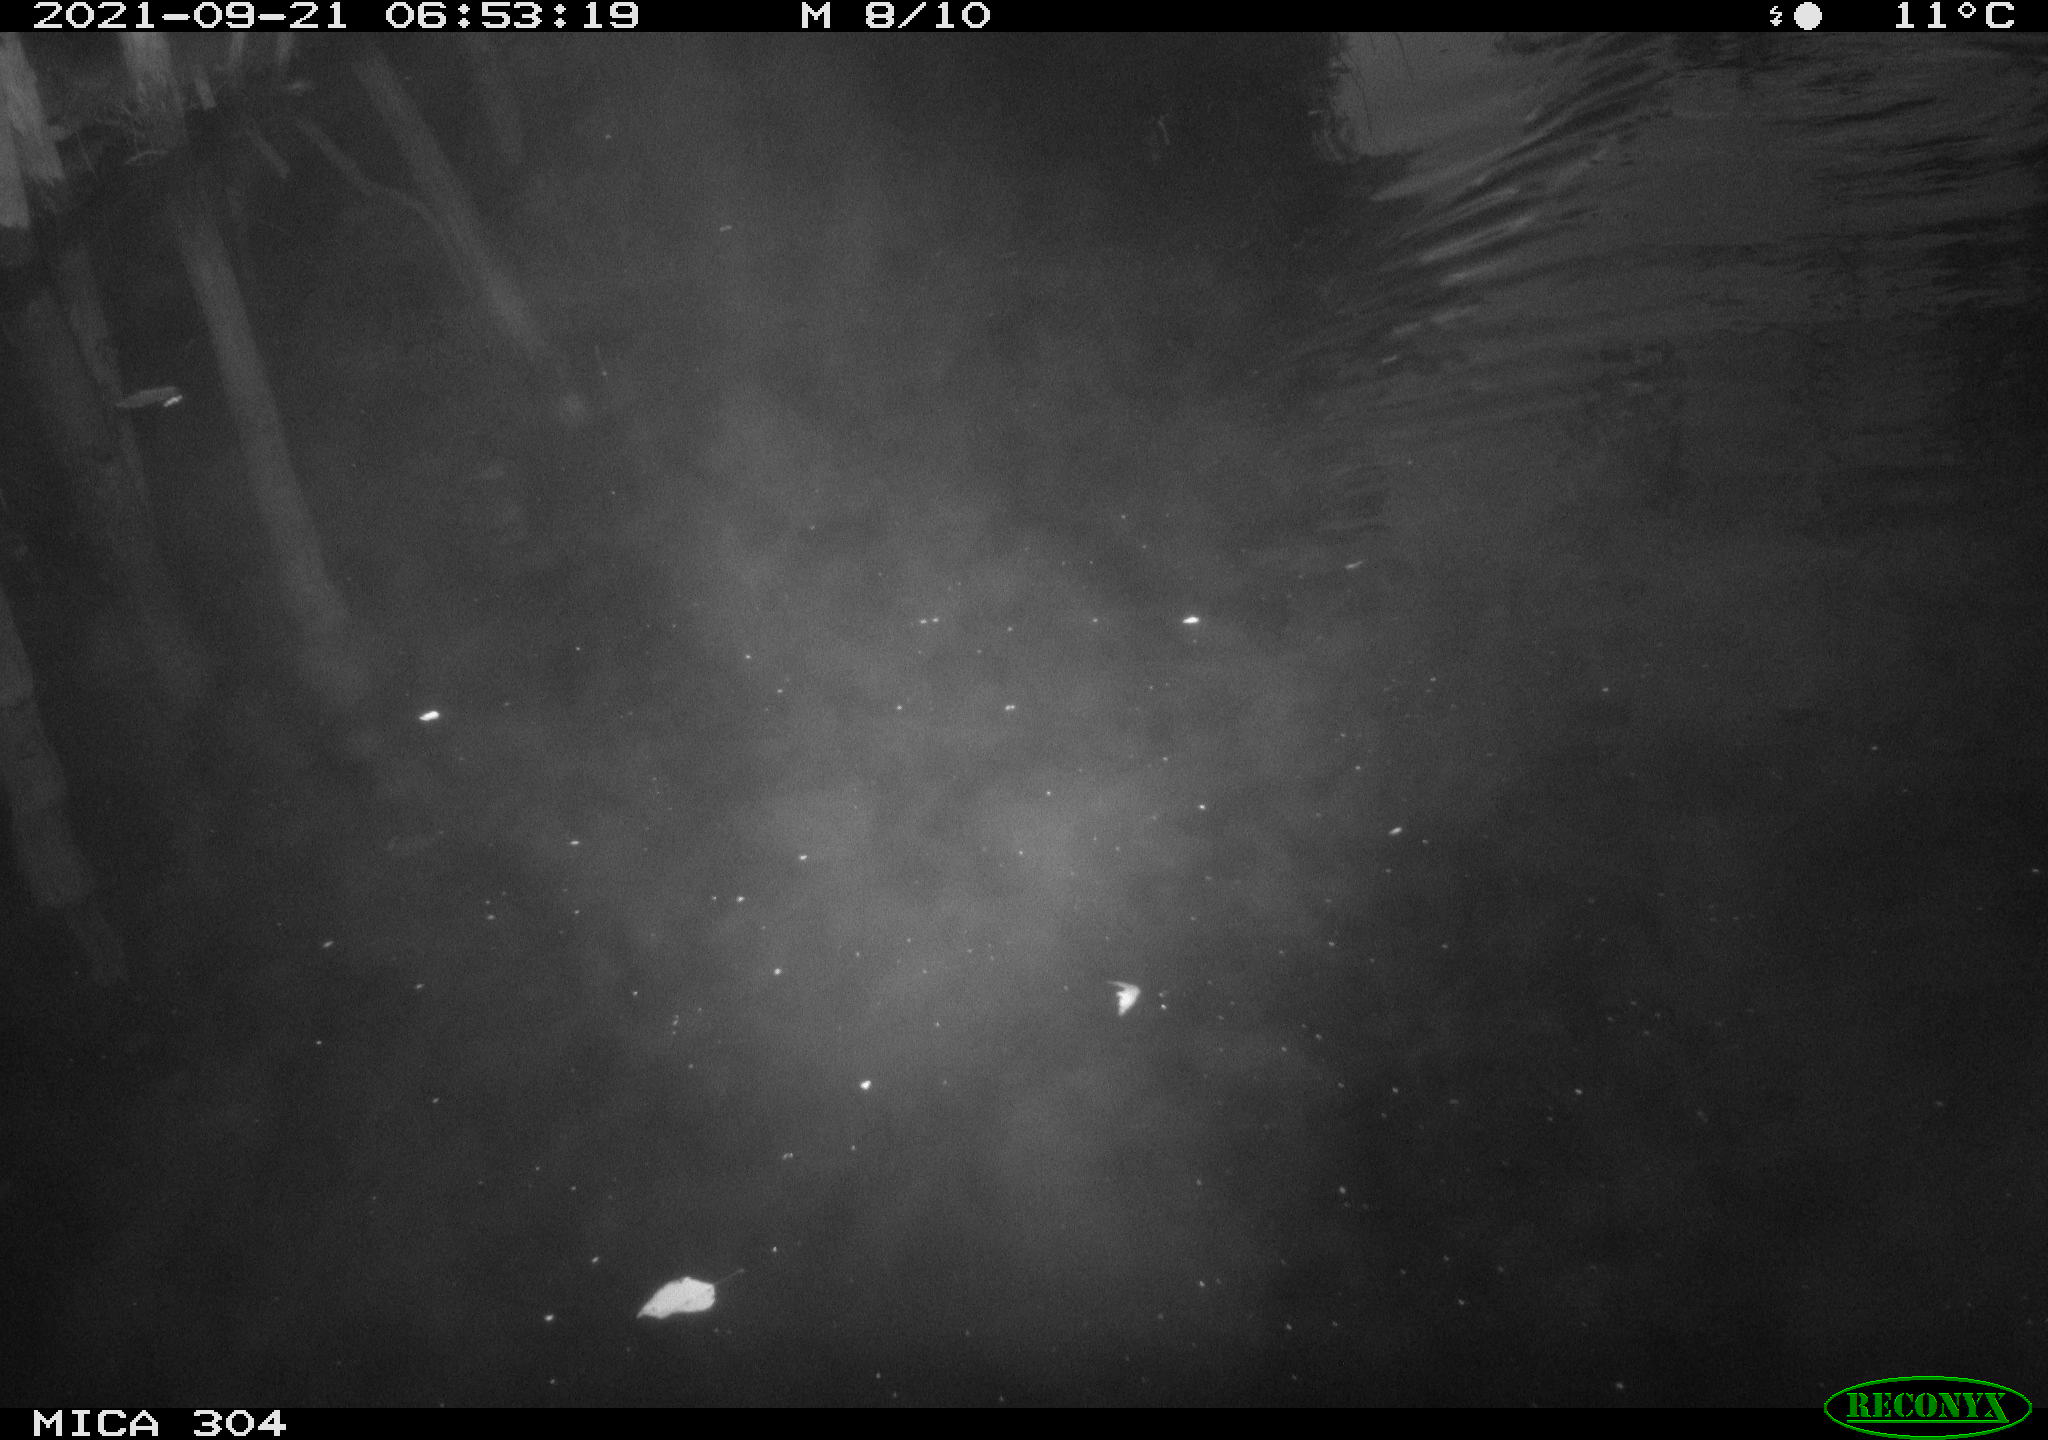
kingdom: Animalia
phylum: Chordata
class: Aves
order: Anseriformes
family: Anatidae
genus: Anas
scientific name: Anas platyrhynchos
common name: Mallard
